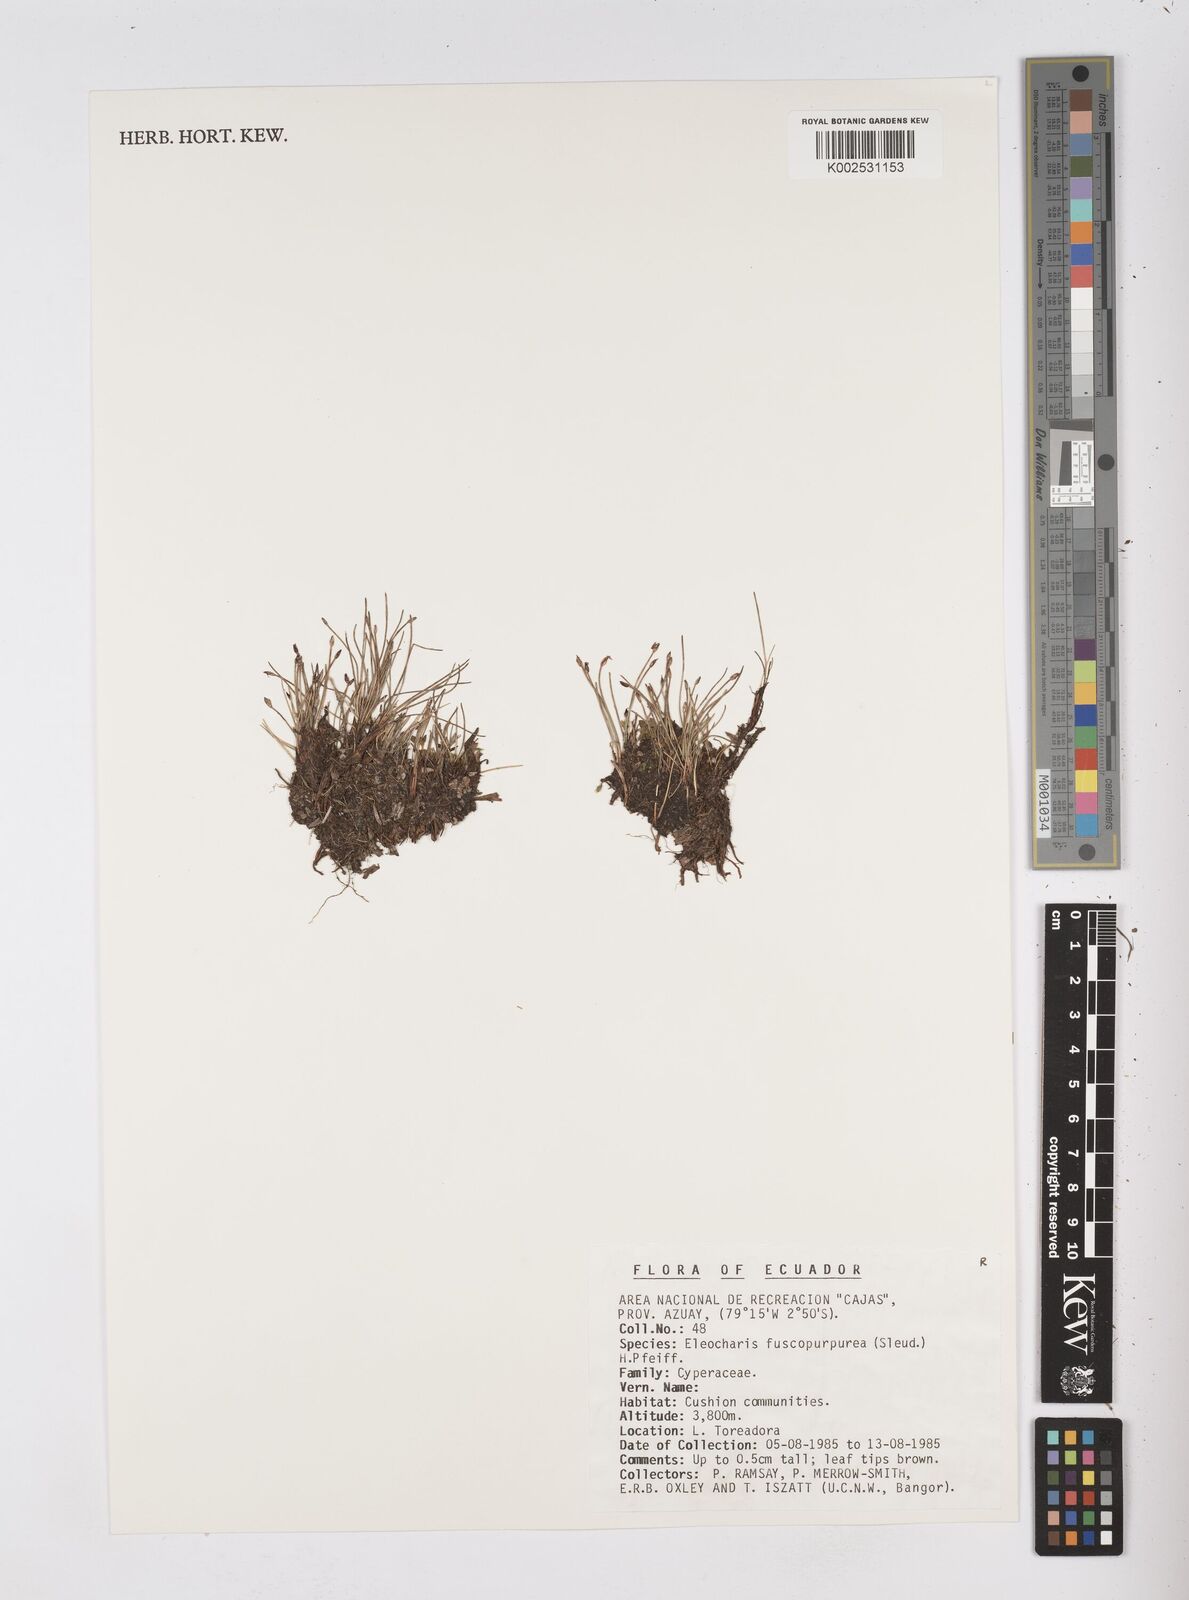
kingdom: Plantae
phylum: Tracheophyta
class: Liliopsida
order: Poales
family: Cyperaceae
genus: Eleocharis
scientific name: Eleocharis fuscopurpurea
